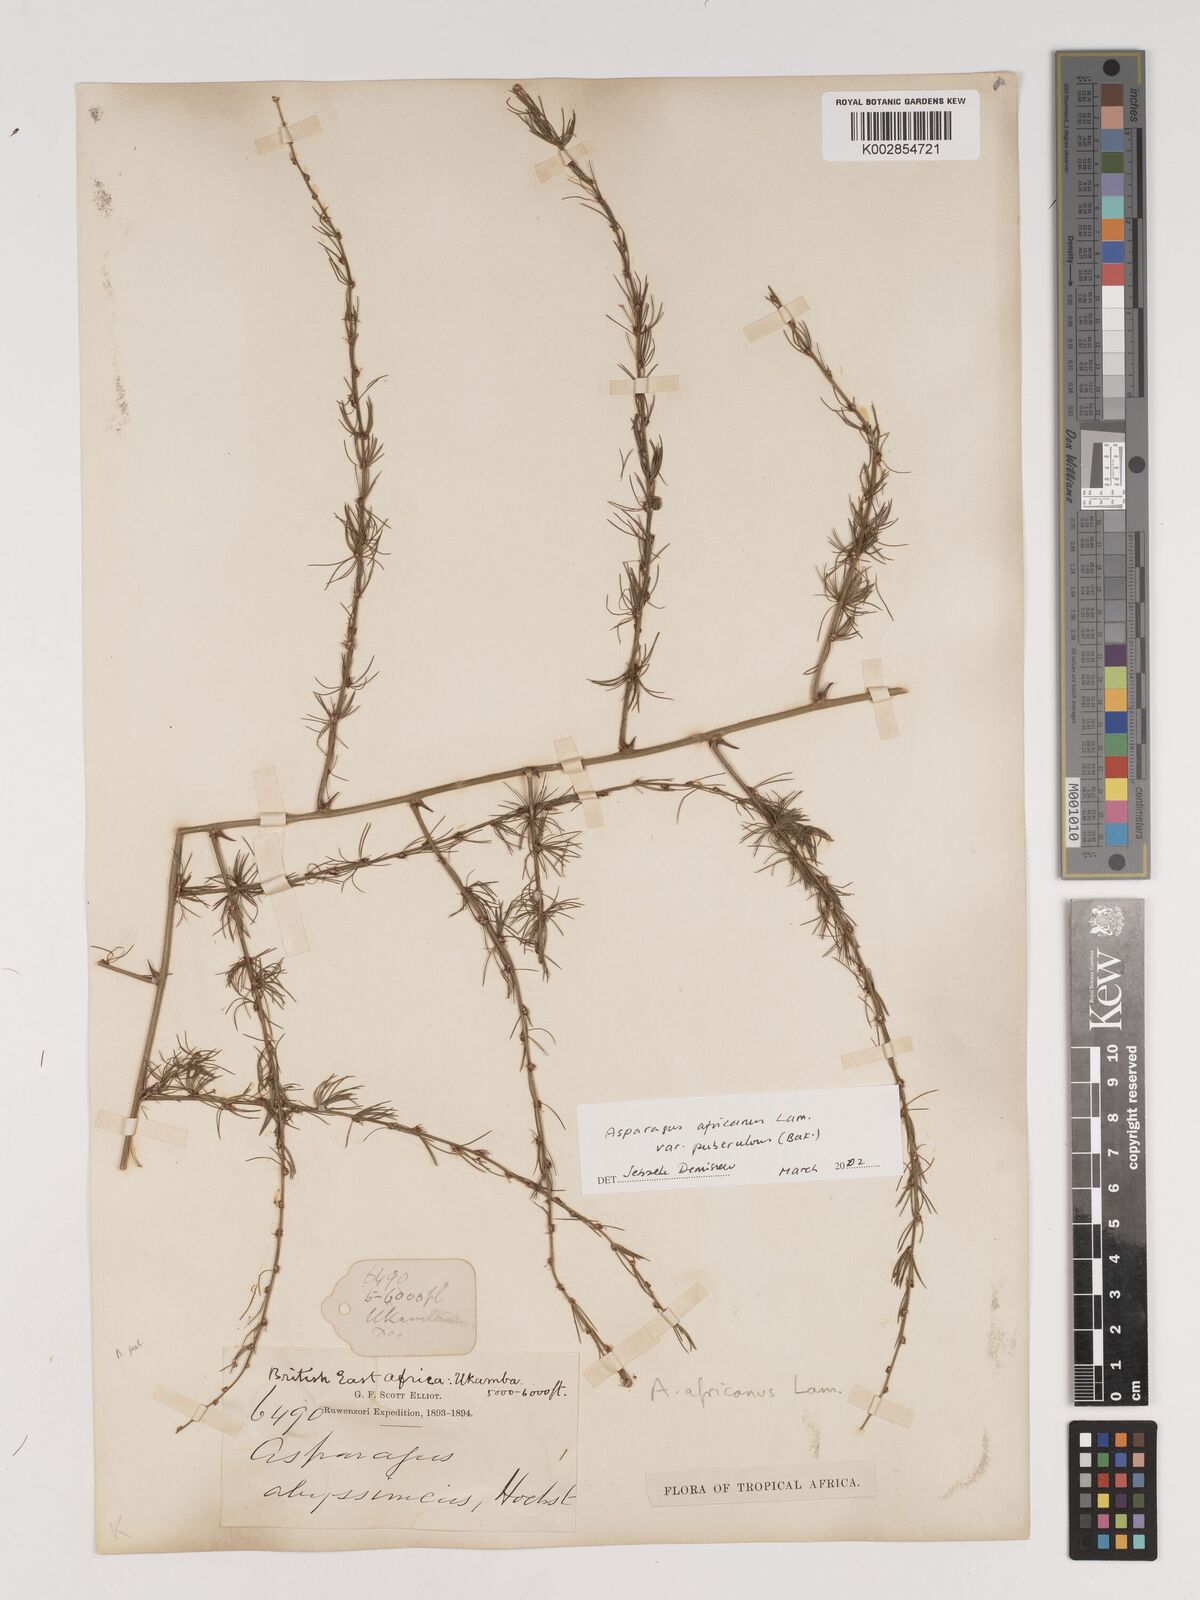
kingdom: Plantae
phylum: Tracheophyta
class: Liliopsida
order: Asparagales
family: Asparagaceae
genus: Asparagus
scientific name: Asparagus africanus
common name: Asparagus-fern
